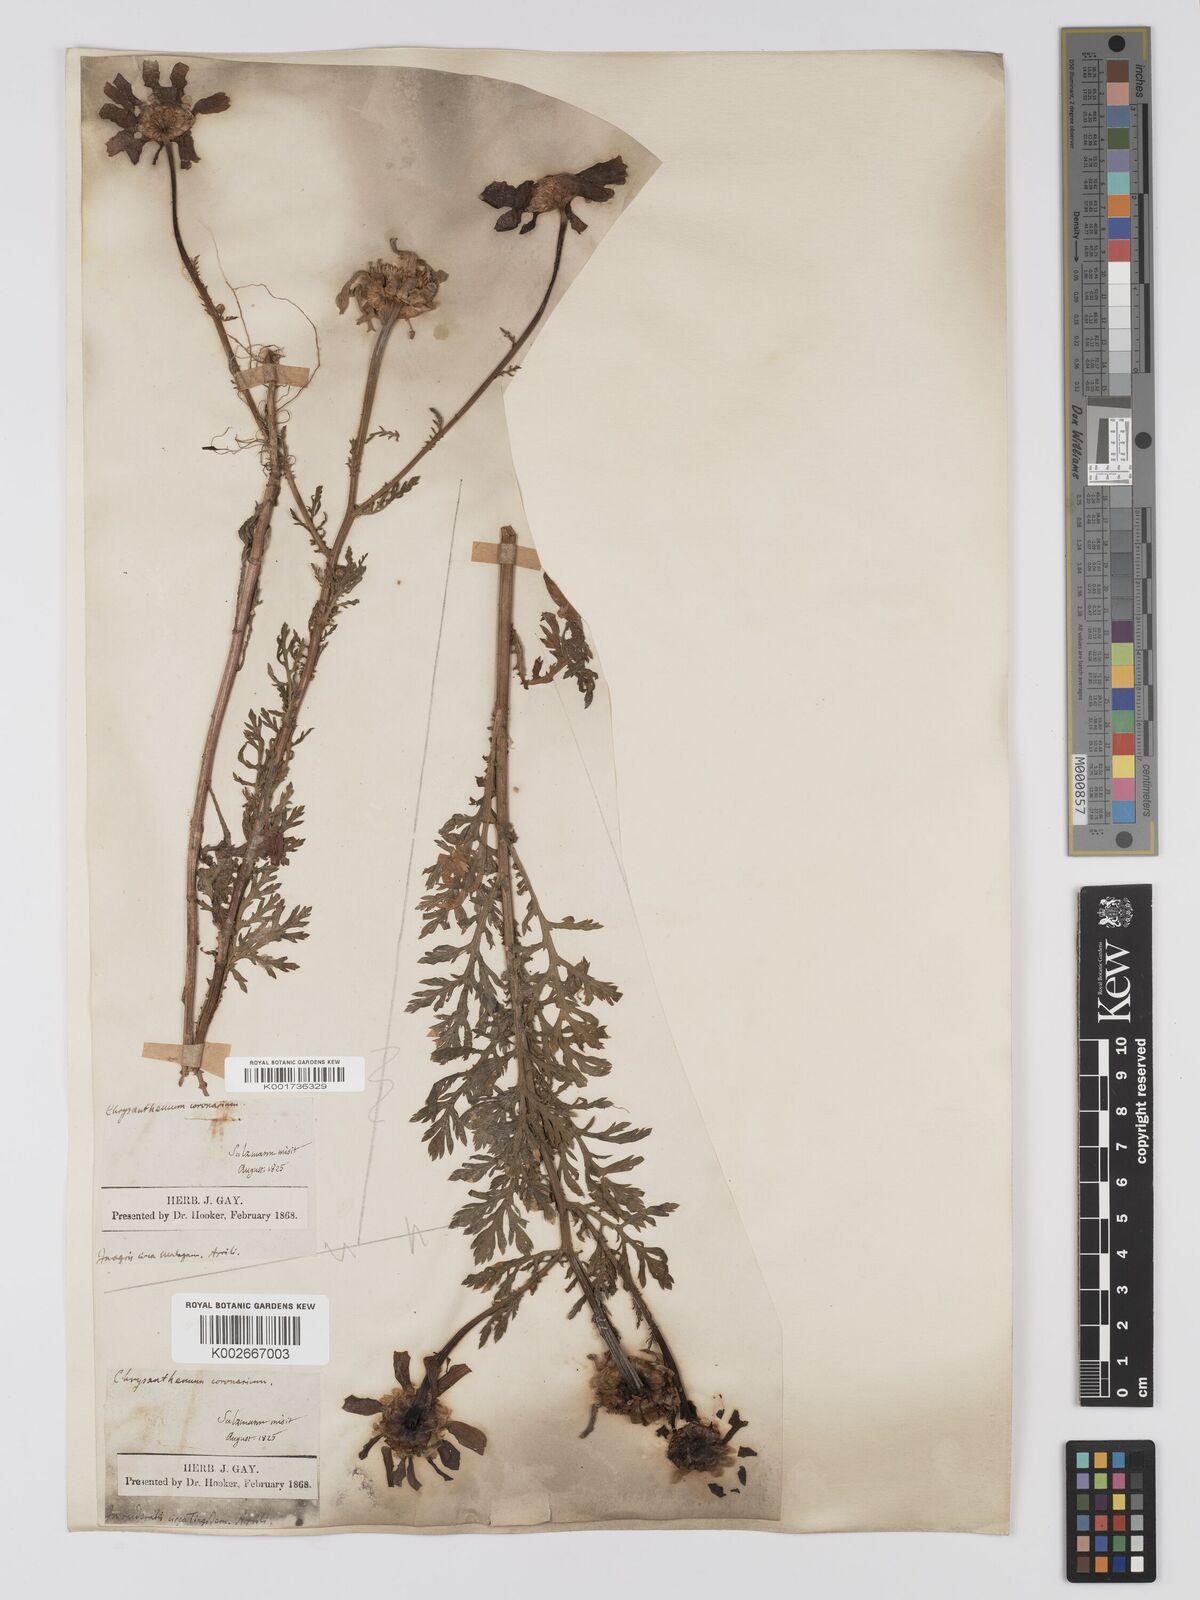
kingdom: Plantae
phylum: Tracheophyta
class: Magnoliopsida
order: Asterales
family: Asteraceae
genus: Glebionis
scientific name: Glebionis coronaria
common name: Crowndaisy
